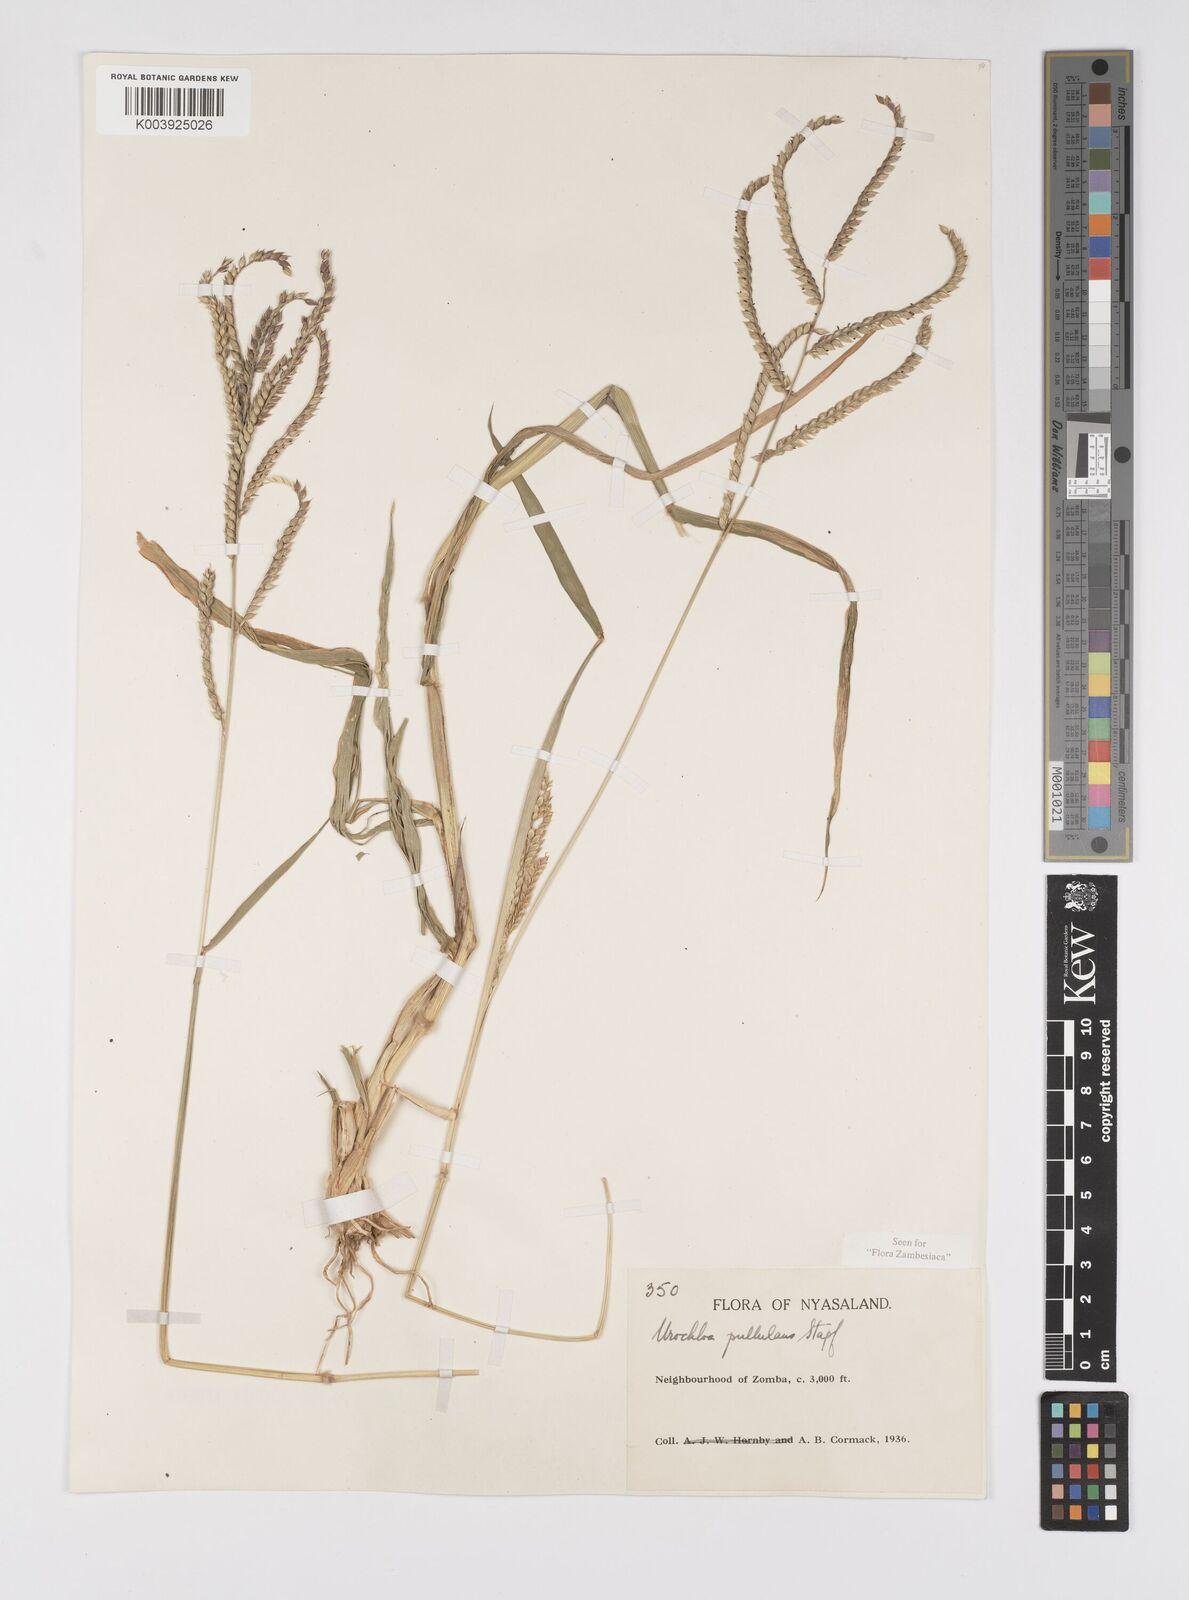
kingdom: Plantae
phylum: Tracheophyta
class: Liliopsida
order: Poales
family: Poaceae
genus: Urochloa
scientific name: Urochloa trichopus
